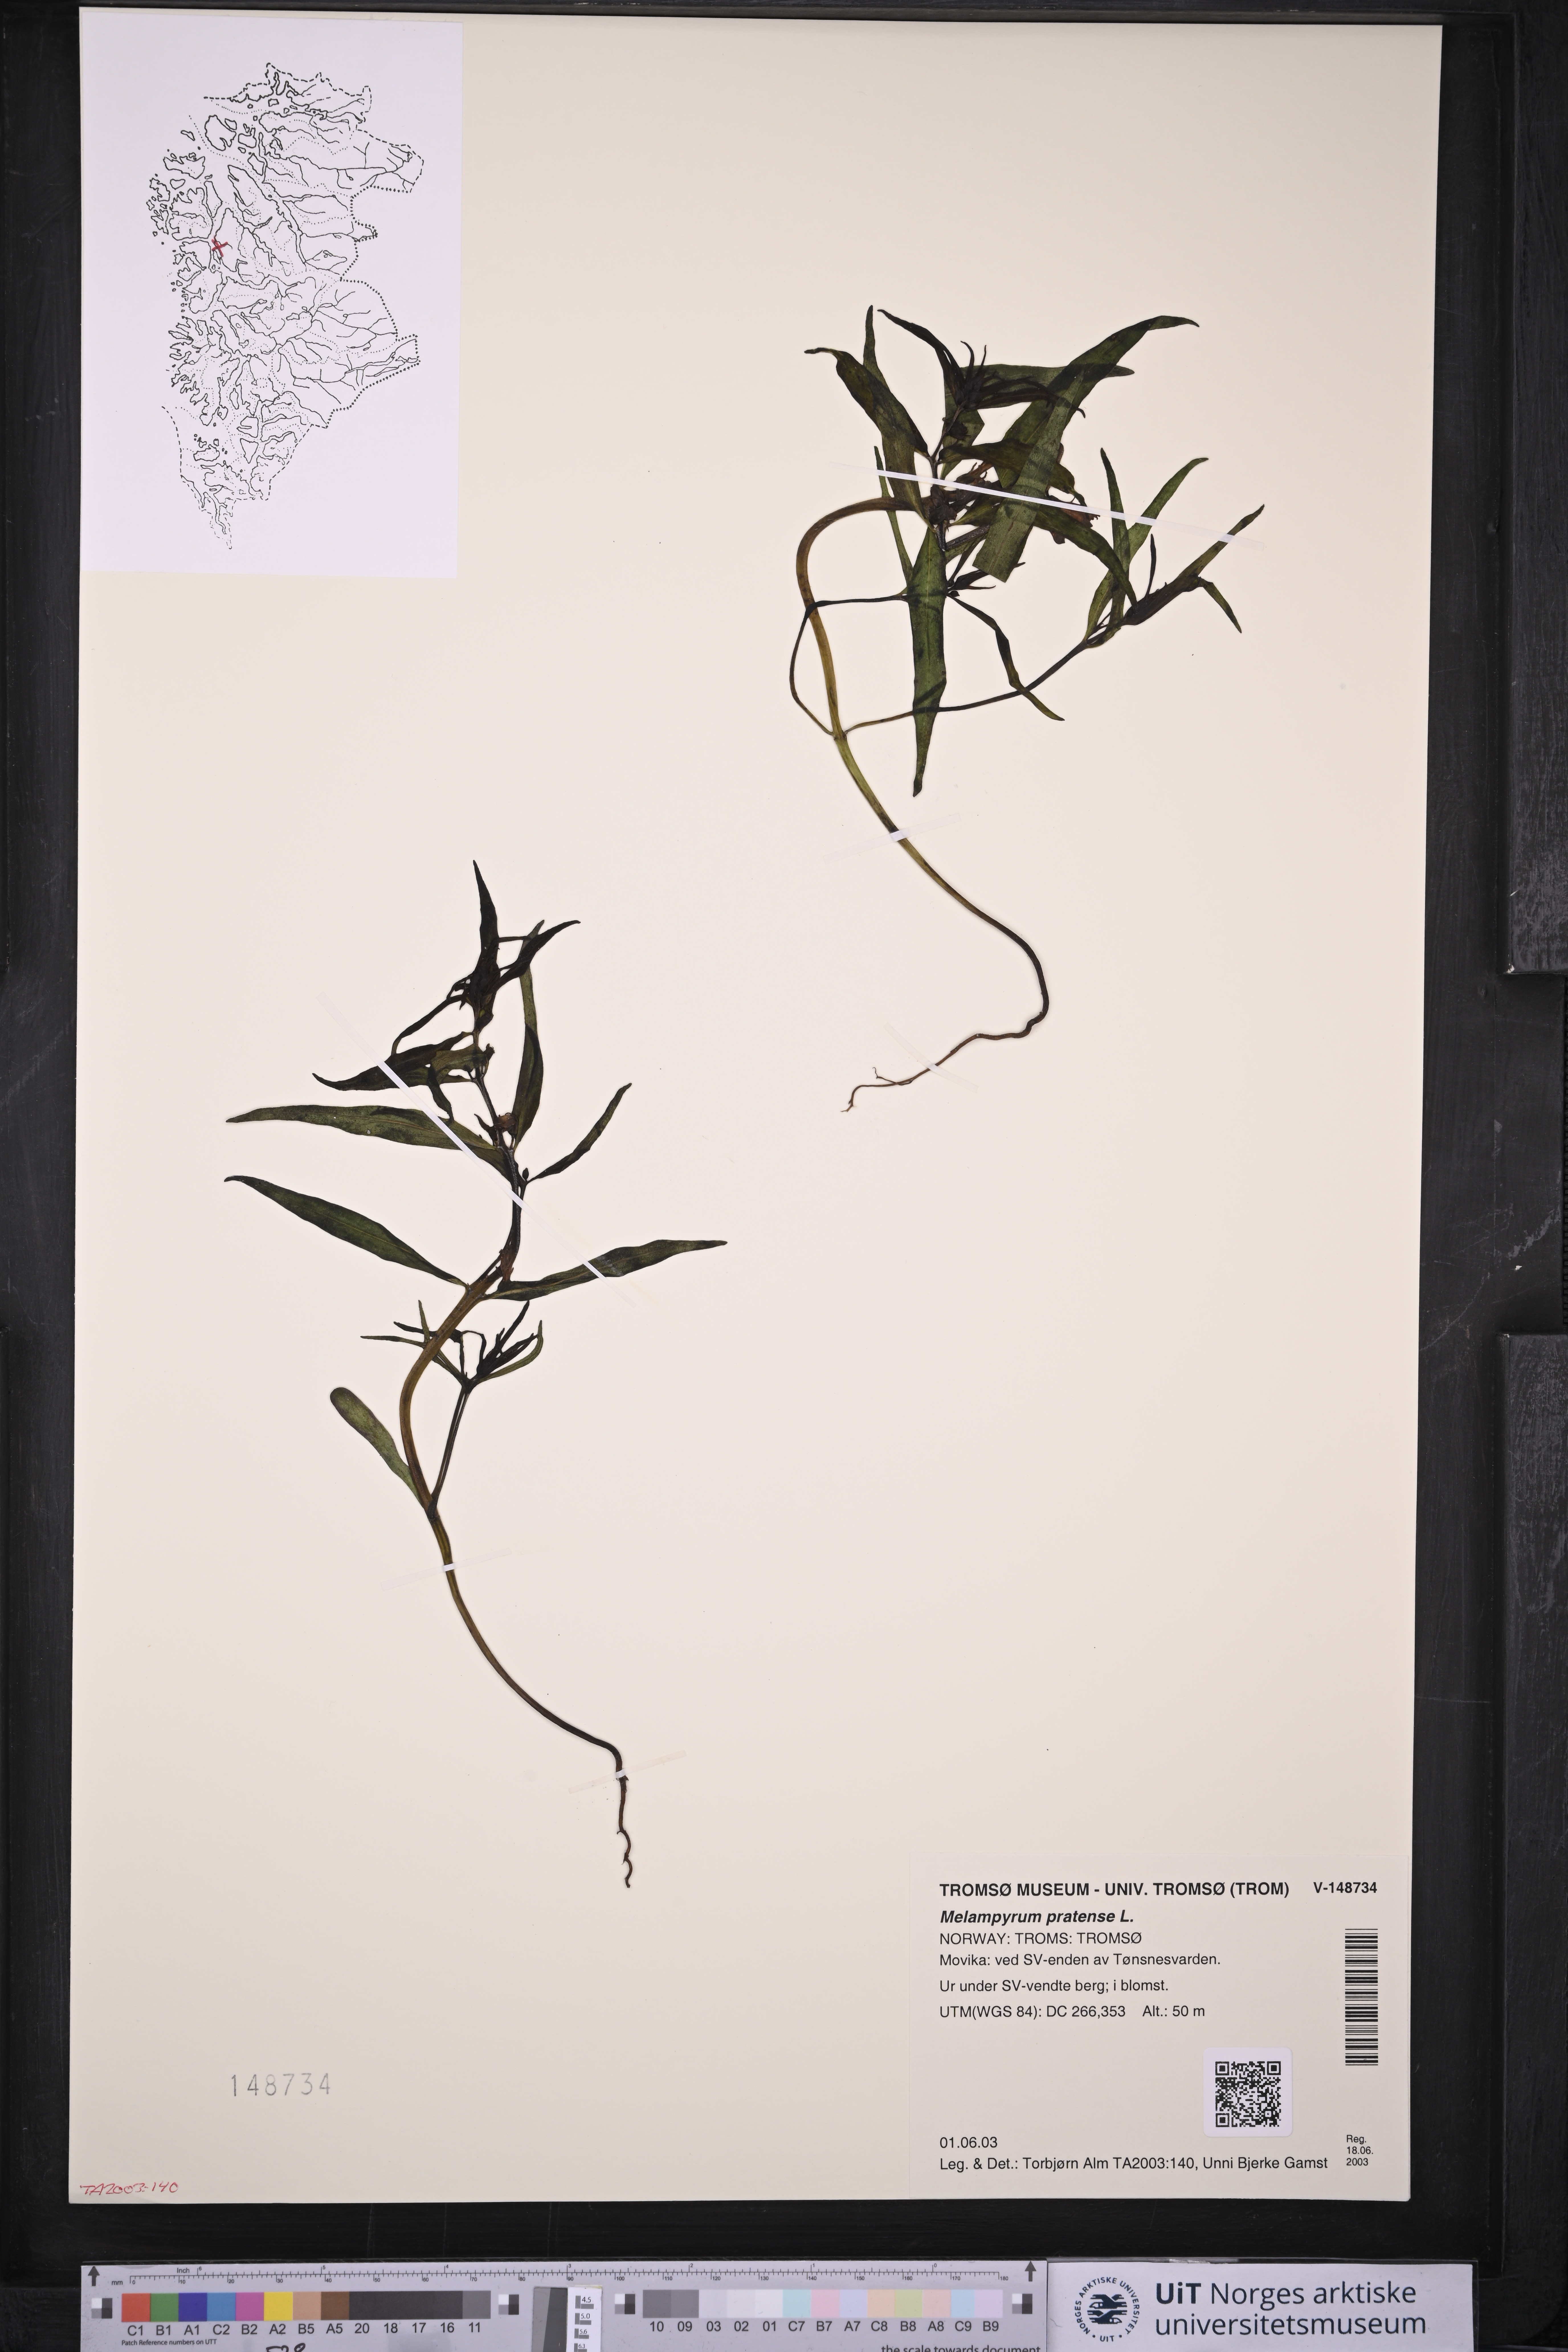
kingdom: Plantae
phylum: Tracheophyta
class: Magnoliopsida
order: Lamiales
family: Orobanchaceae
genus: Melampyrum
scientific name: Melampyrum pratense
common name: Common cow-wheat
